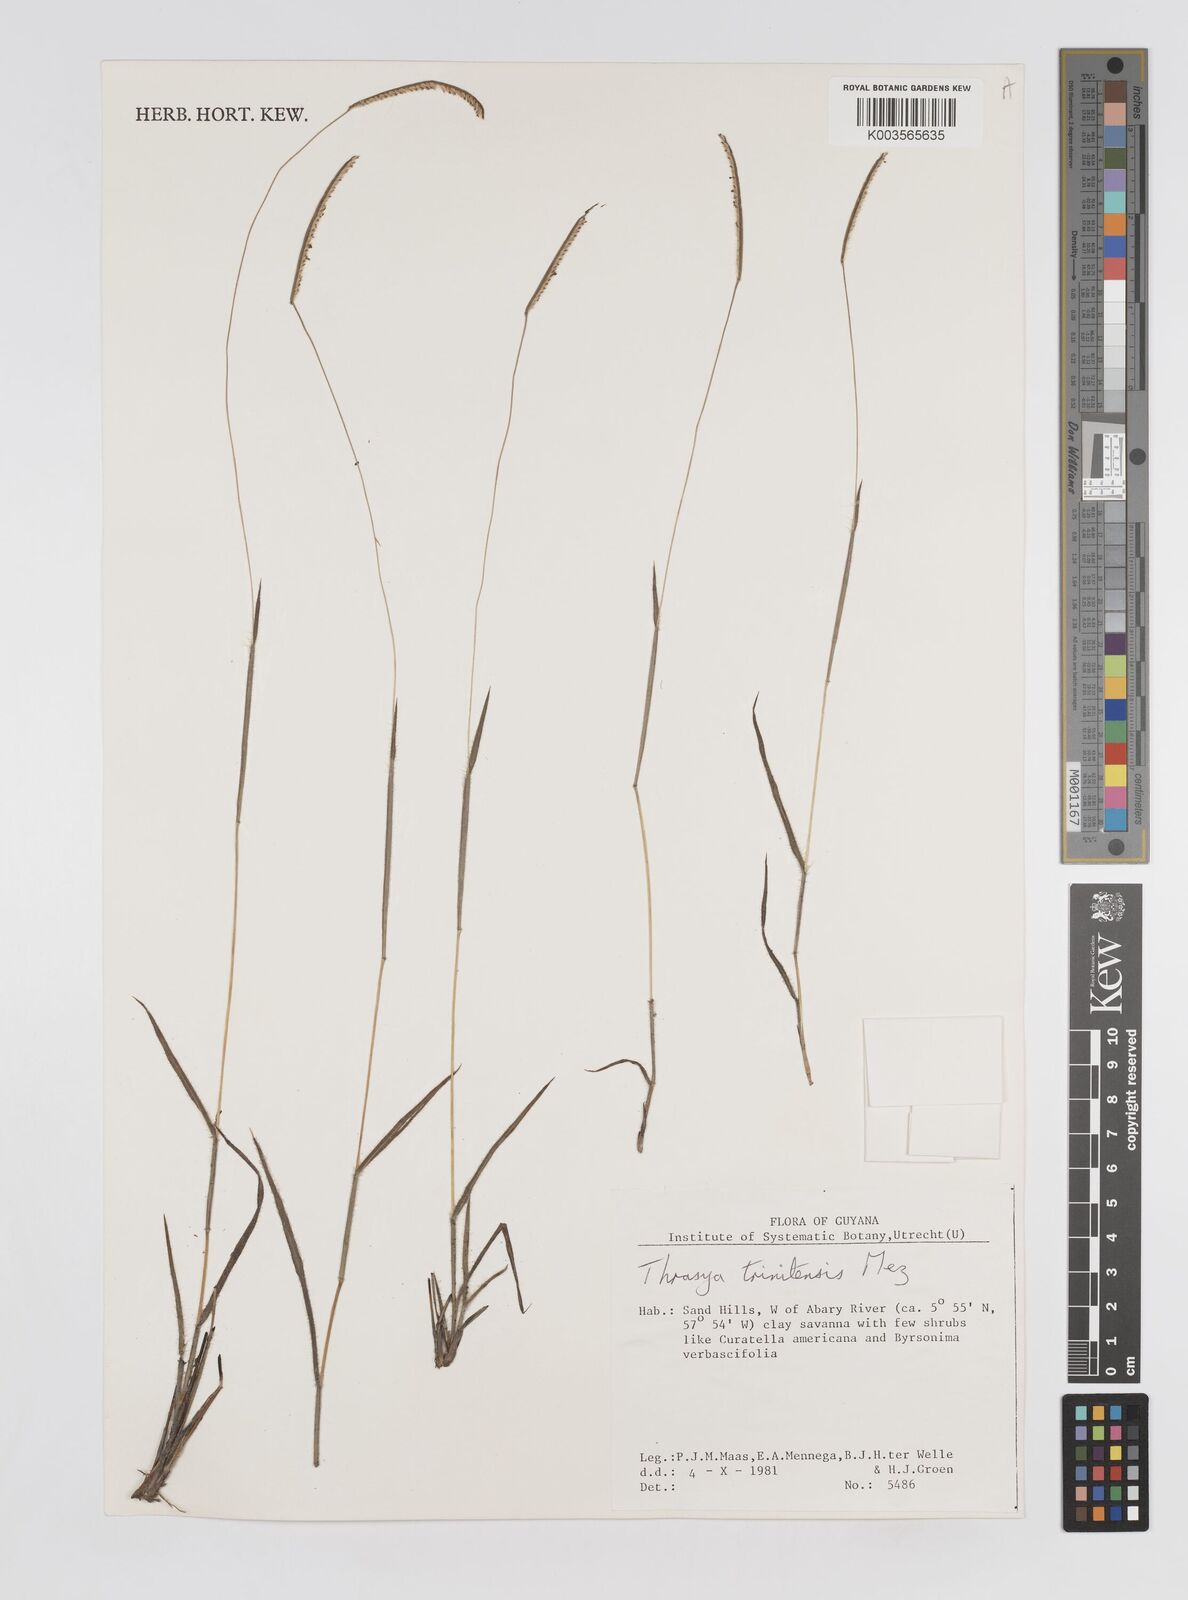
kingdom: Plantae
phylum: Tracheophyta
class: Liliopsida
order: Poales
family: Poaceae
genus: Paspalum
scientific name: Paspalum thrasyoides
